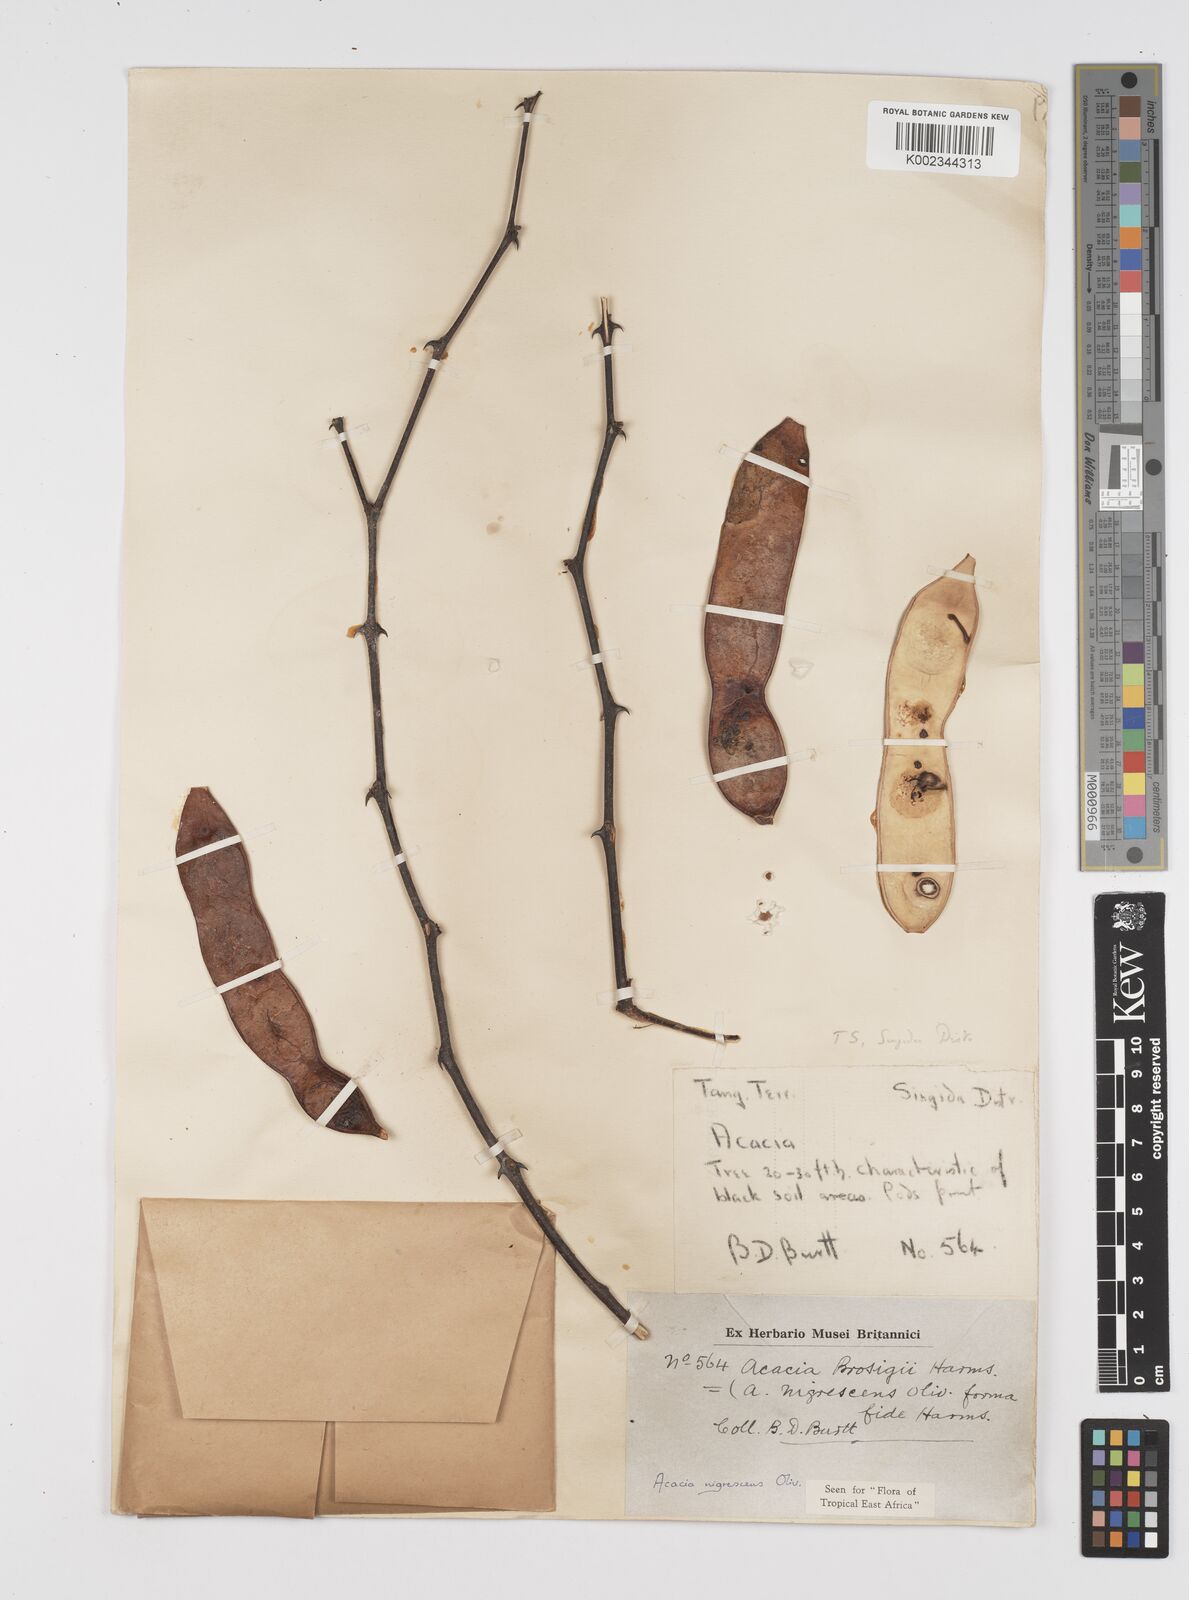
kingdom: Plantae
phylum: Tracheophyta
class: Magnoliopsida
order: Fabales
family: Fabaceae
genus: Senegalia
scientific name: Senegalia nigrescens
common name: Knobthorn
